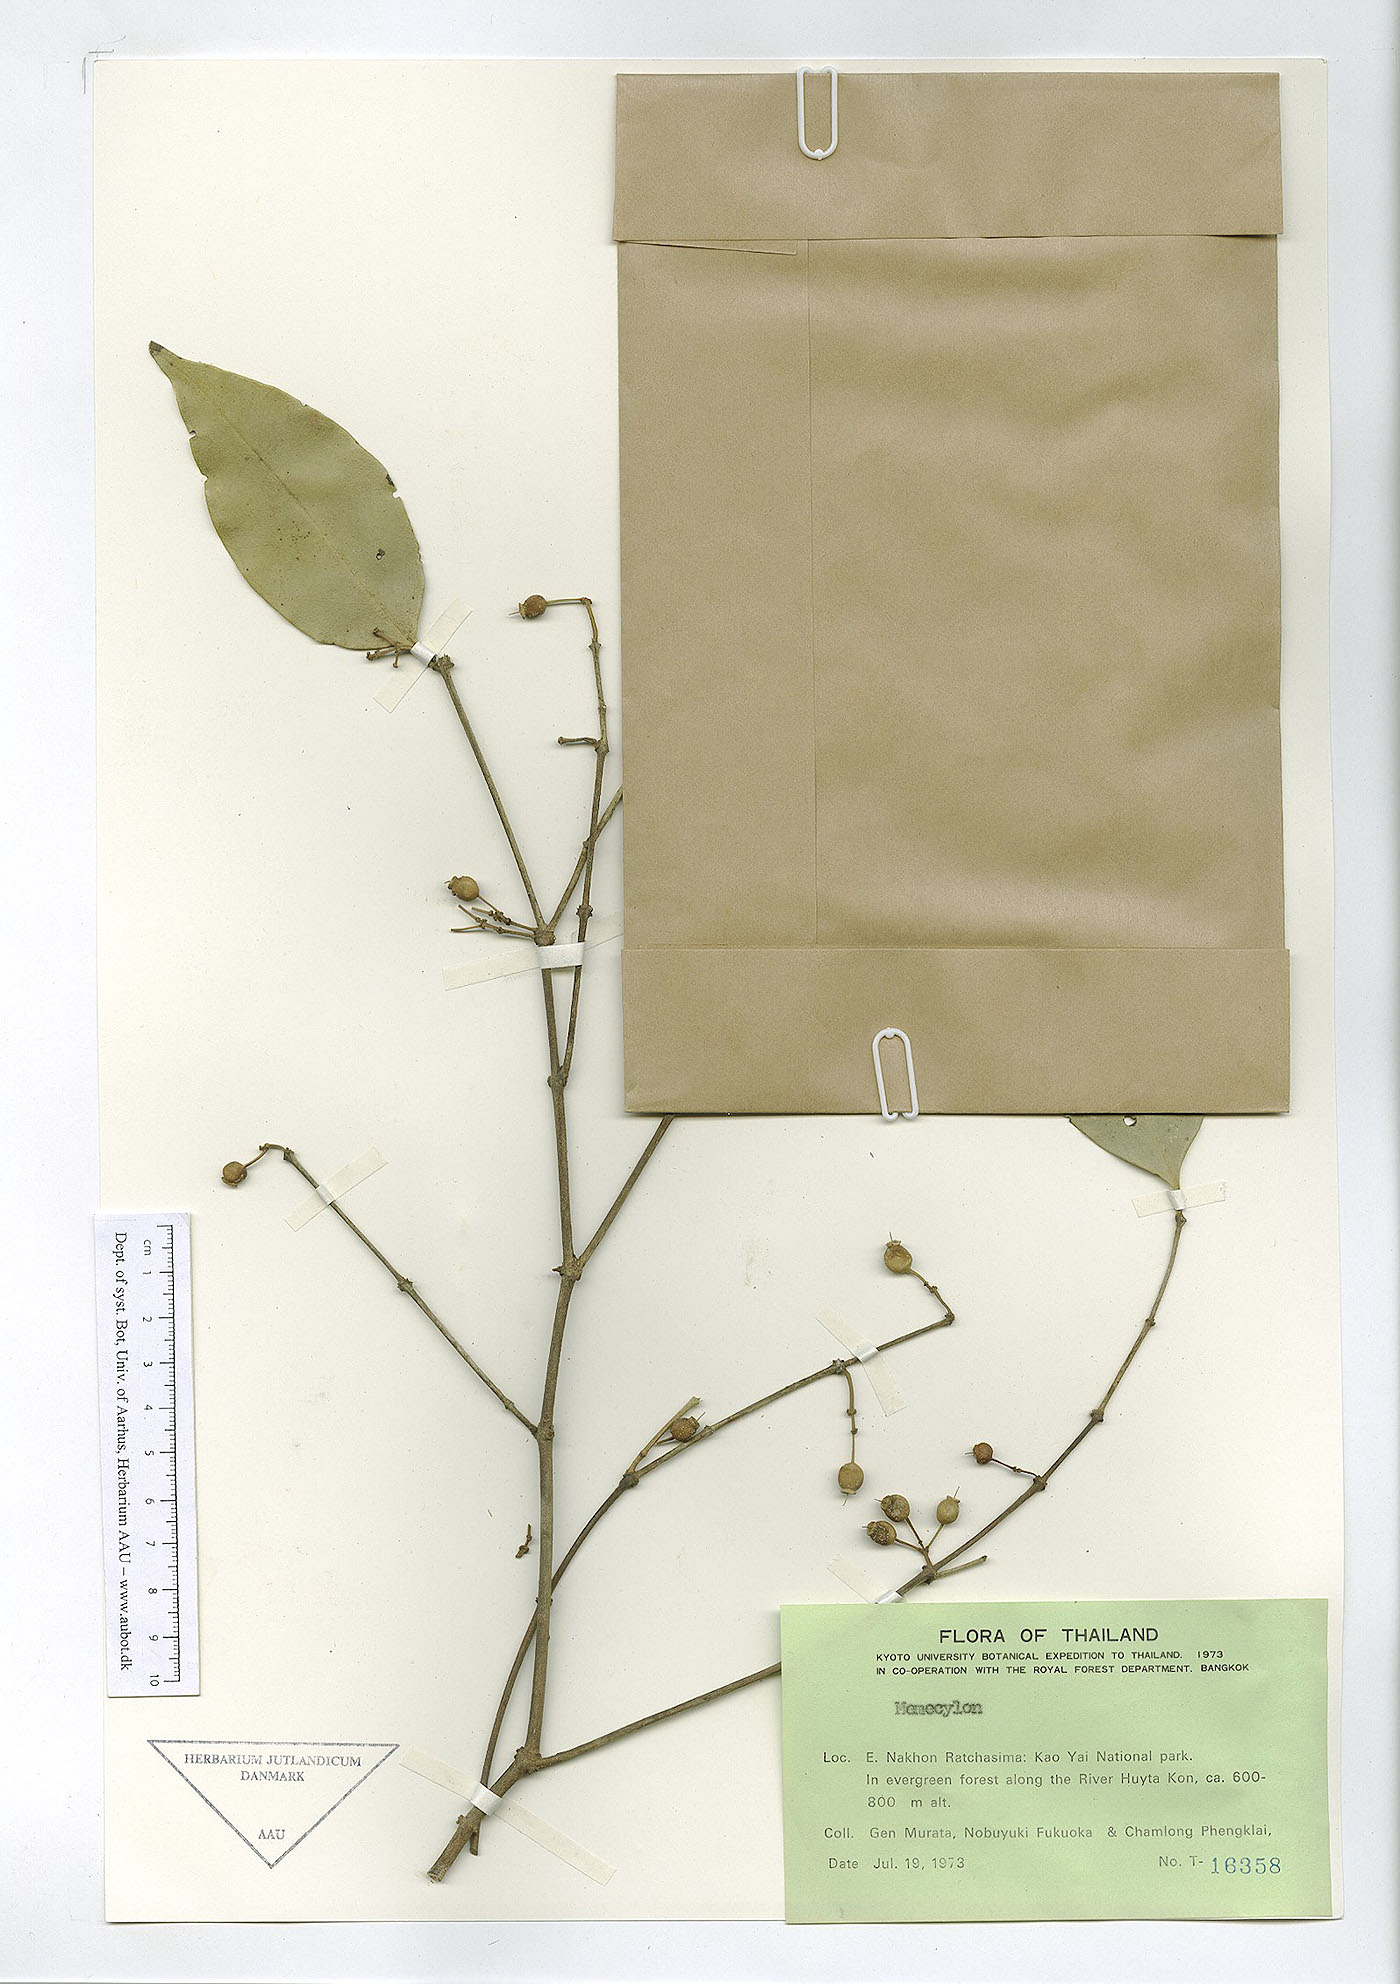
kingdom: Plantae
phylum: Tracheophyta
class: Magnoliopsida
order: Myrtales
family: Melastomataceae
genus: Memecylon
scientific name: Memecylon corticosum
